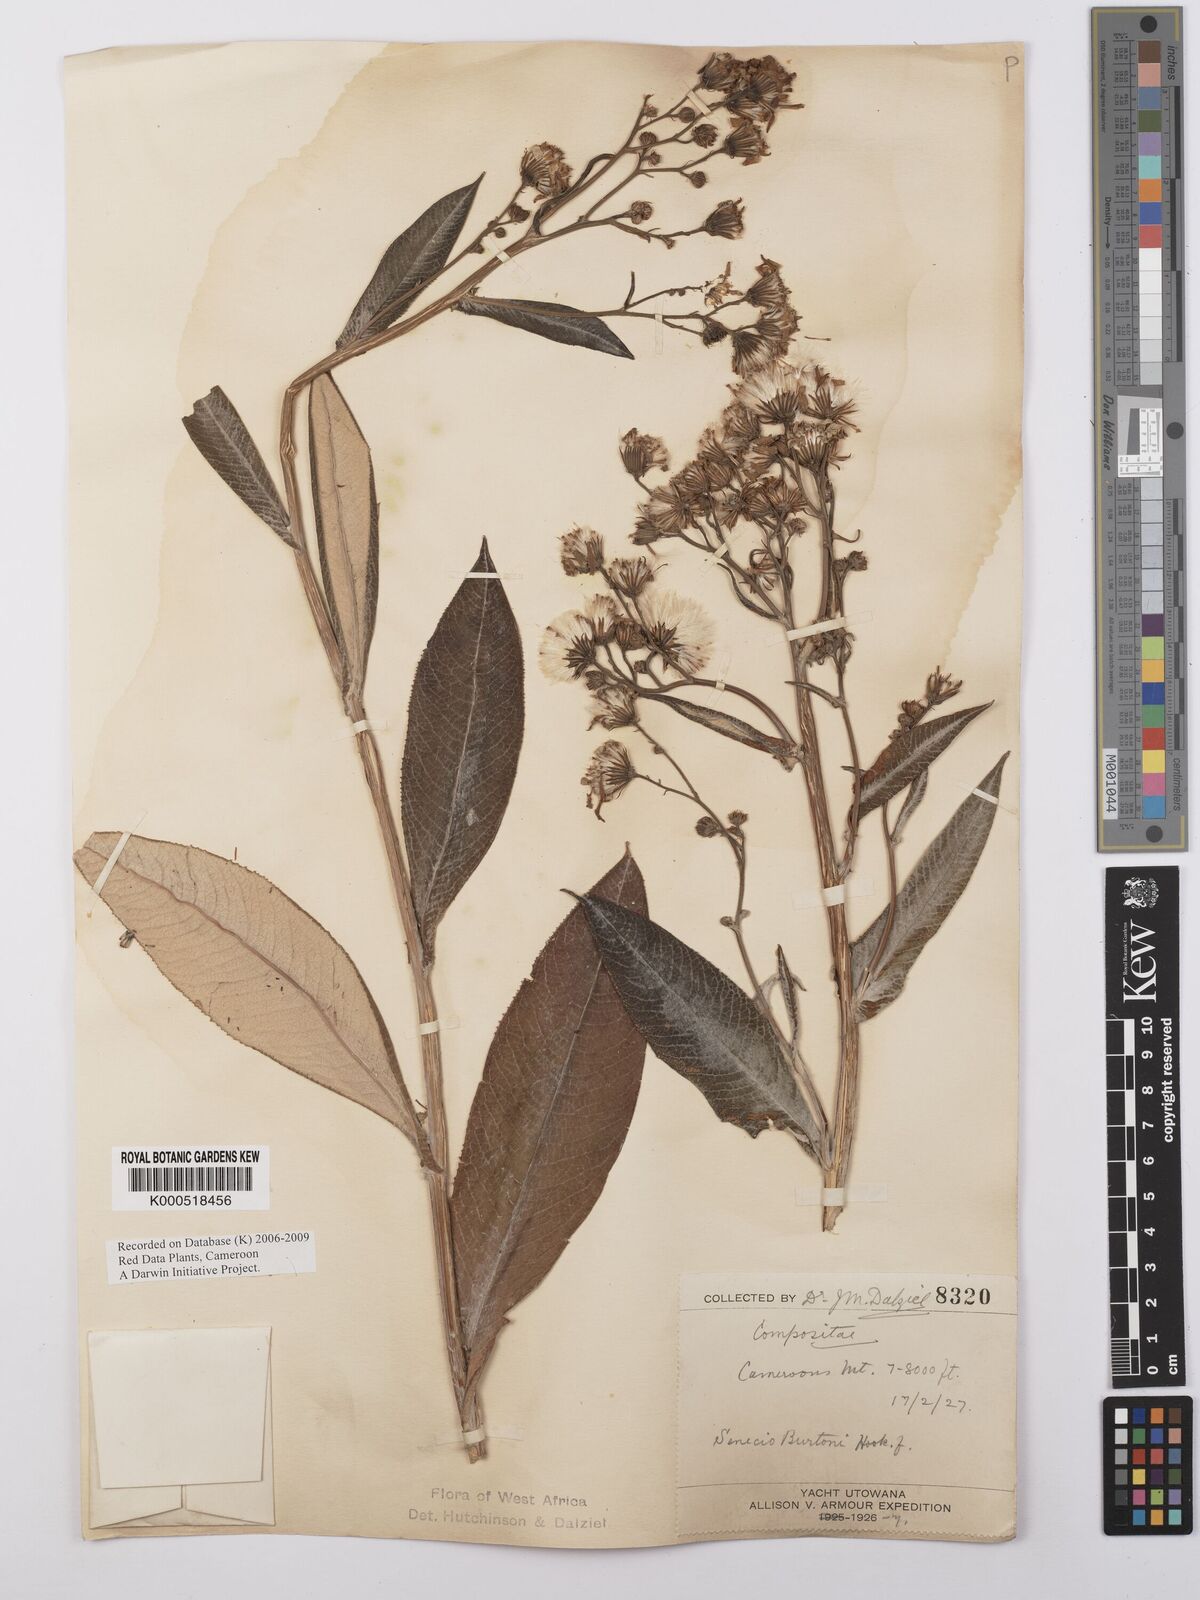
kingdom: Plantae
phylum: Tracheophyta
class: Magnoliopsida
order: Asterales
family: Asteraceae
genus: Senecio
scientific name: Senecio burtonii
